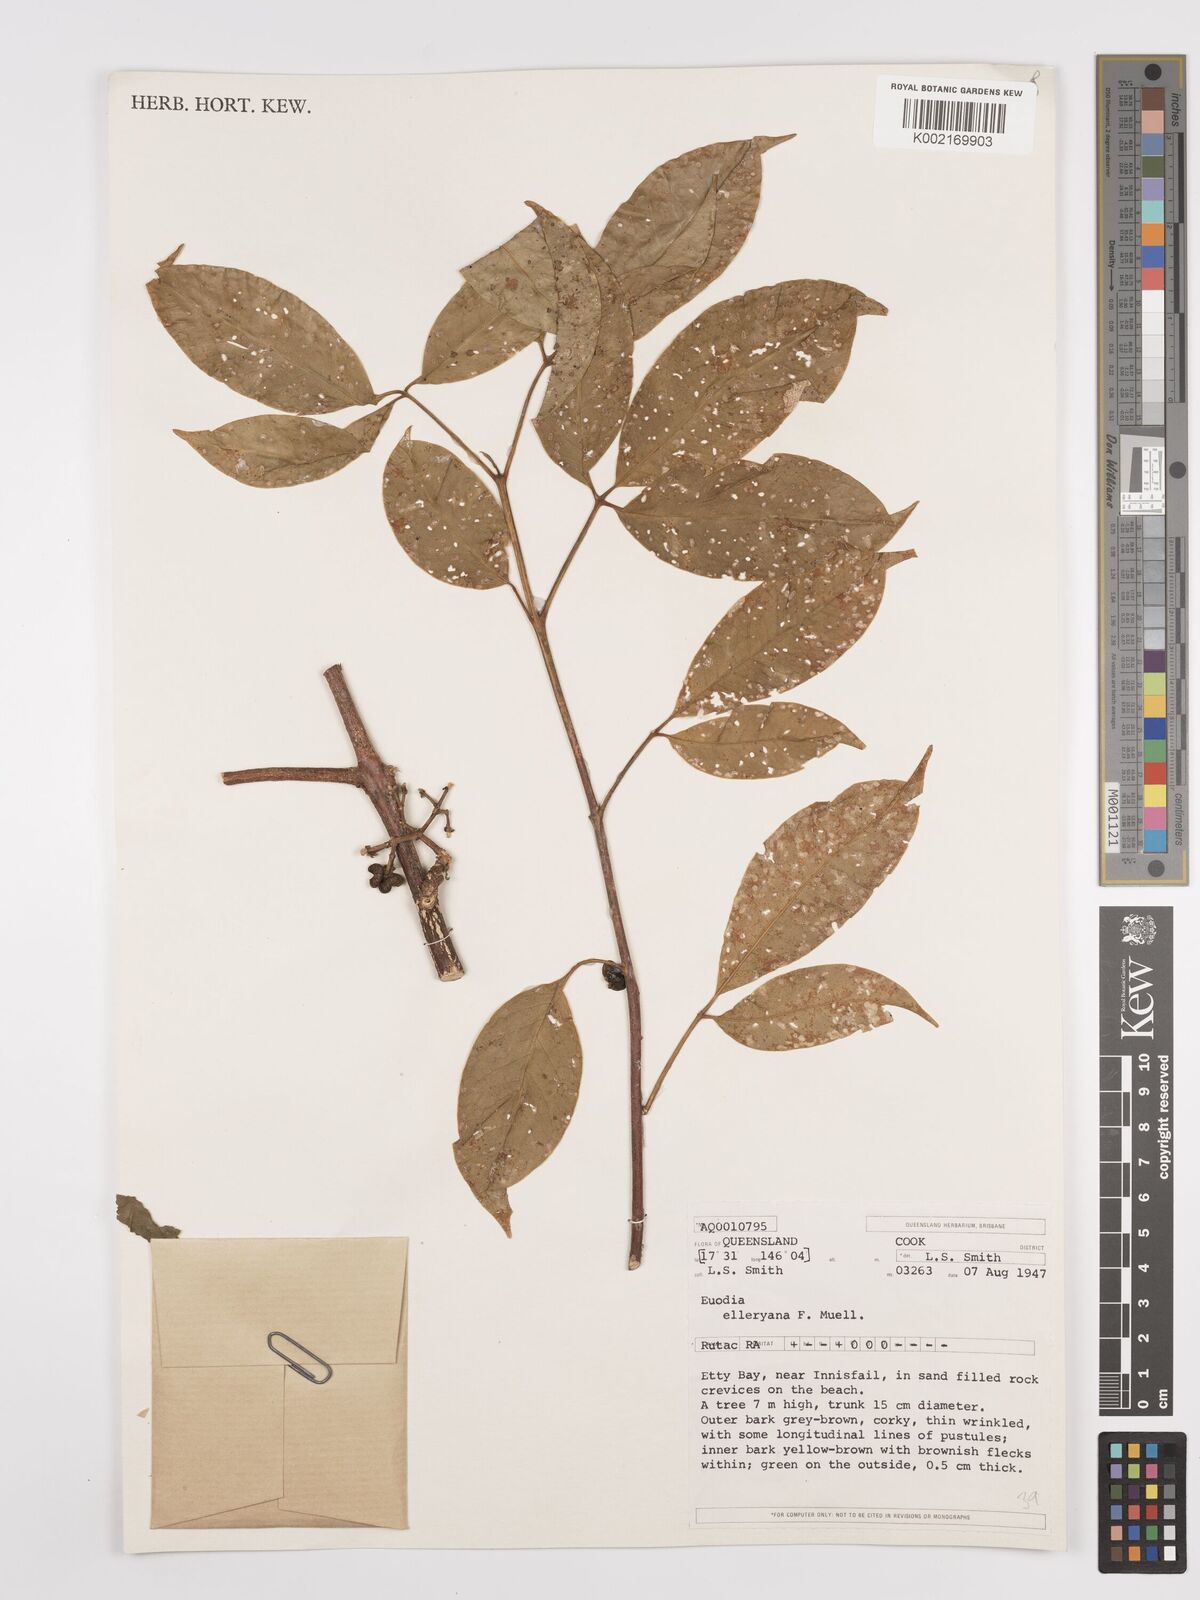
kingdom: Plantae
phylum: Tracheophyta
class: Magnoliopsida
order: Sapindales
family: Rutaceae
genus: Melicope
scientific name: Melicope accedens
